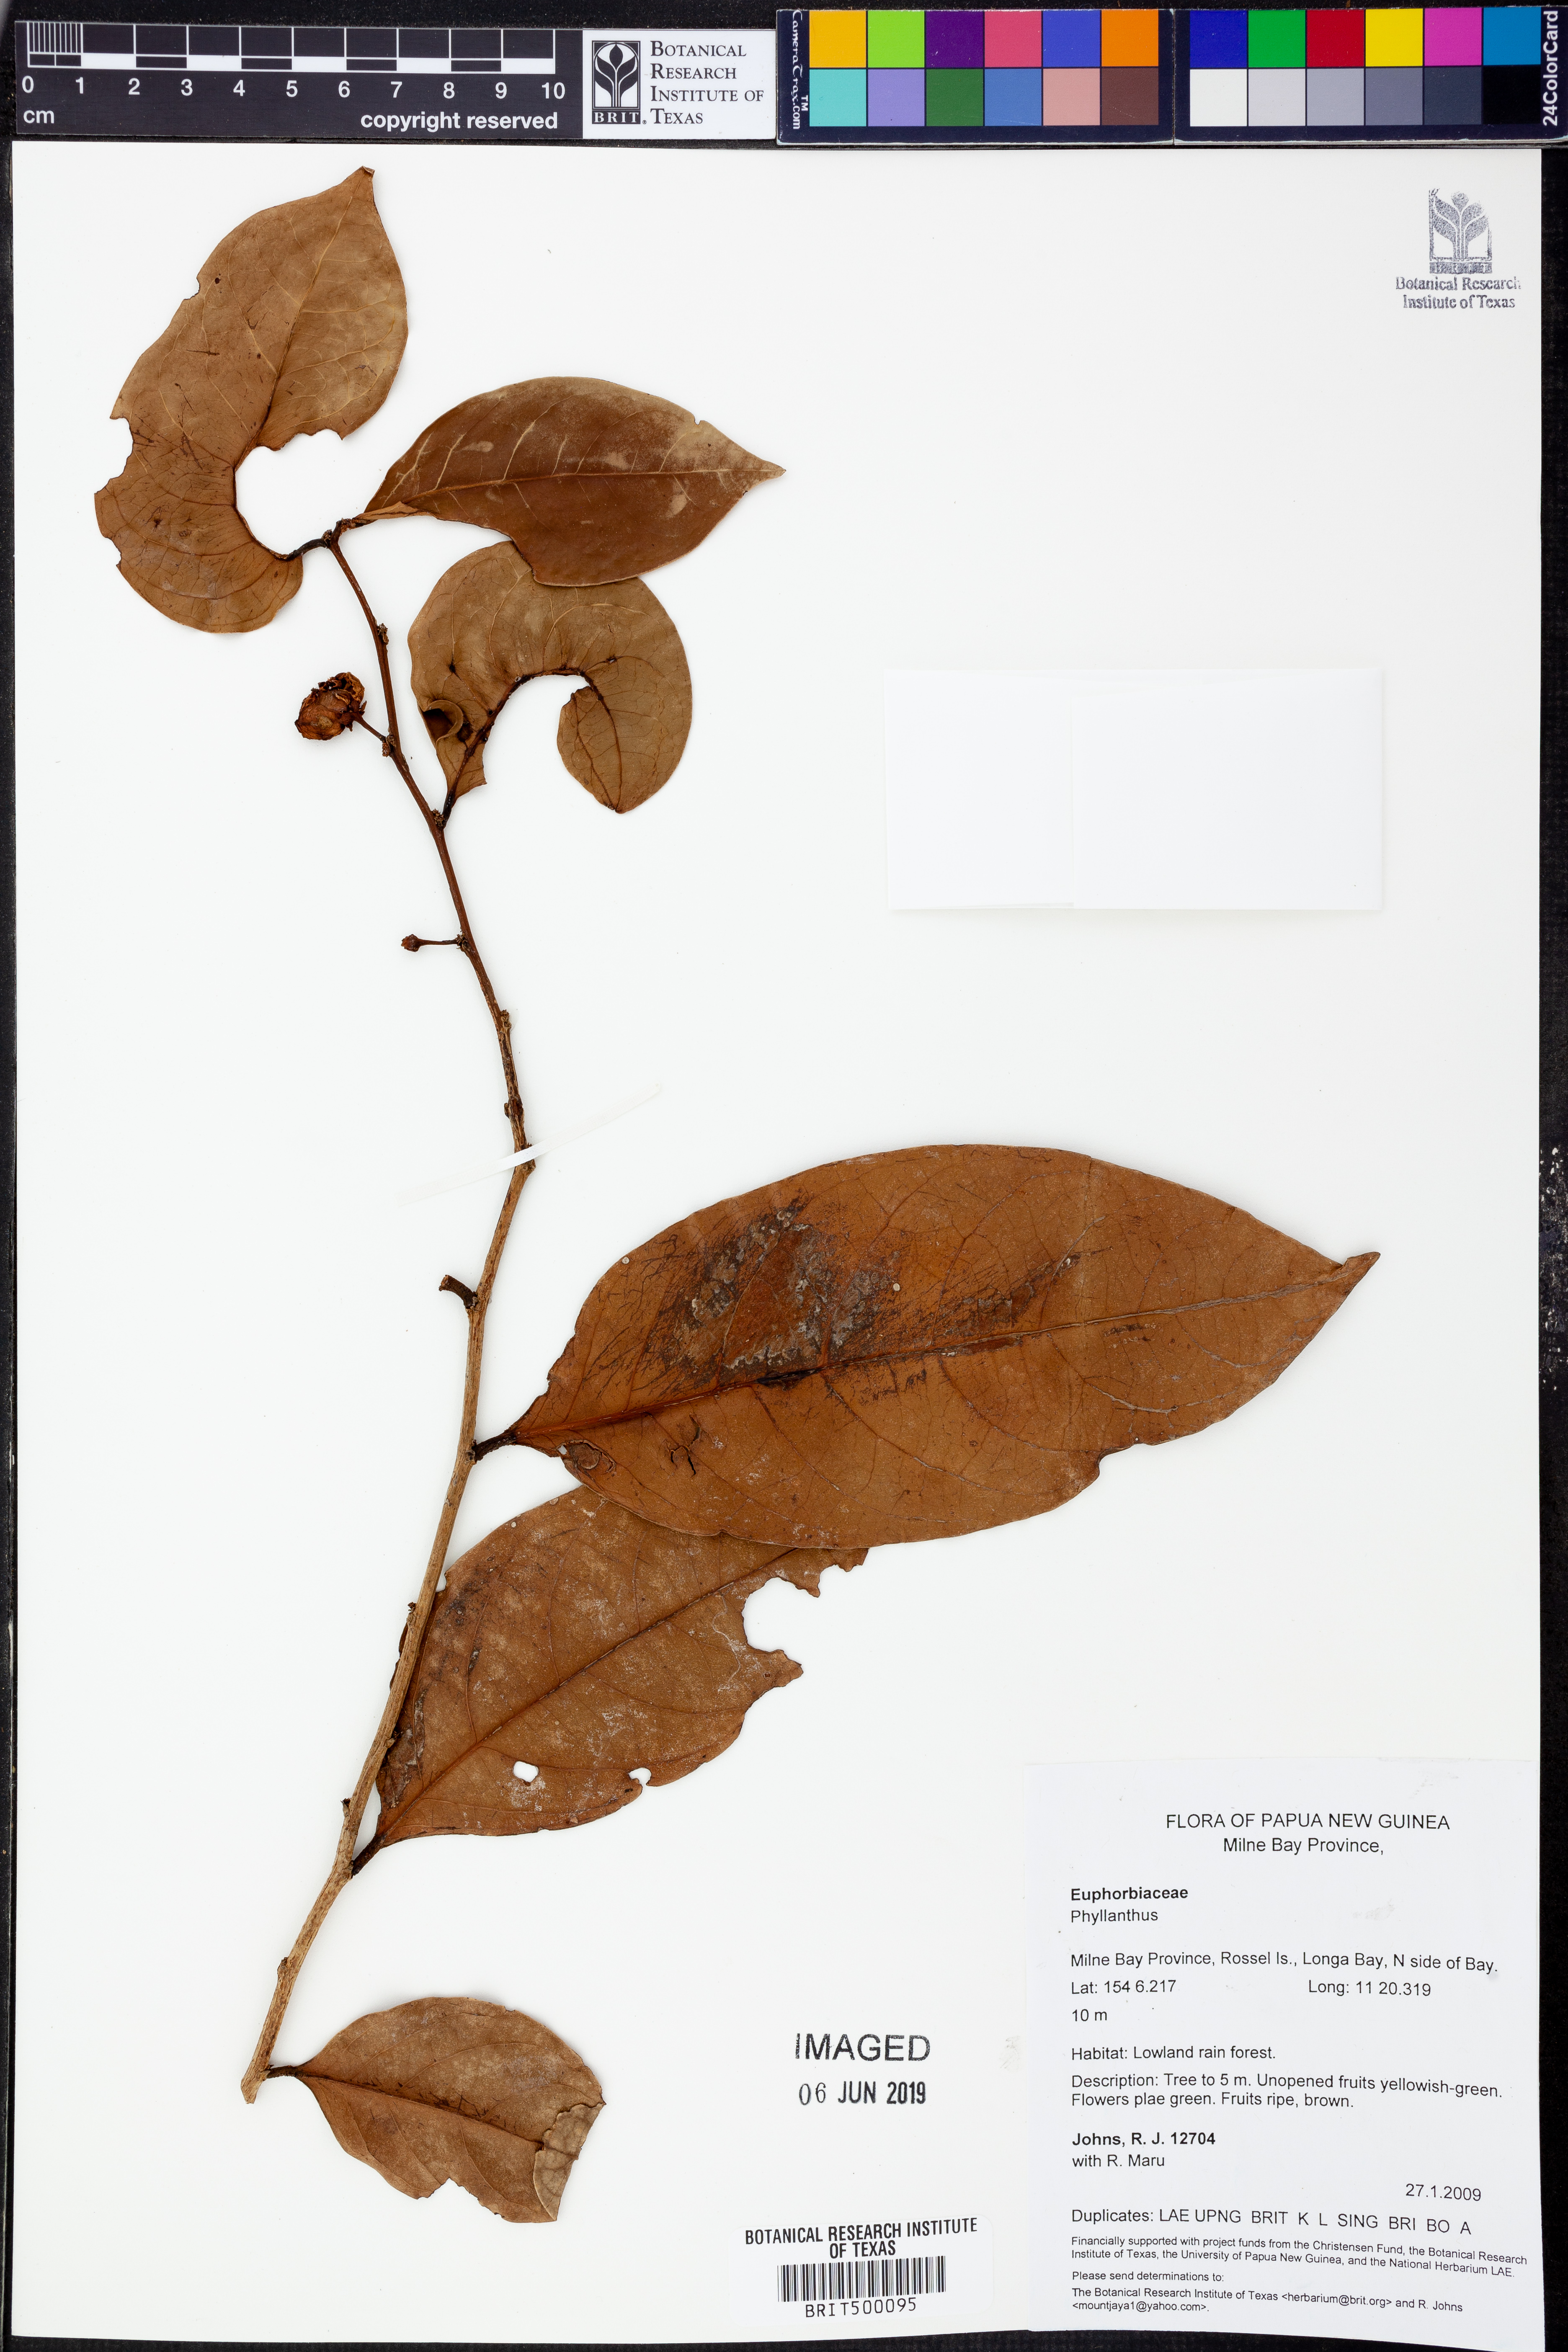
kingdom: Plantae
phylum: Tracheophyta
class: Magnoliopsida
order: Malpighiales
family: Phyllanthaceae
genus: Phyllanthus
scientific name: Phyllanthus
